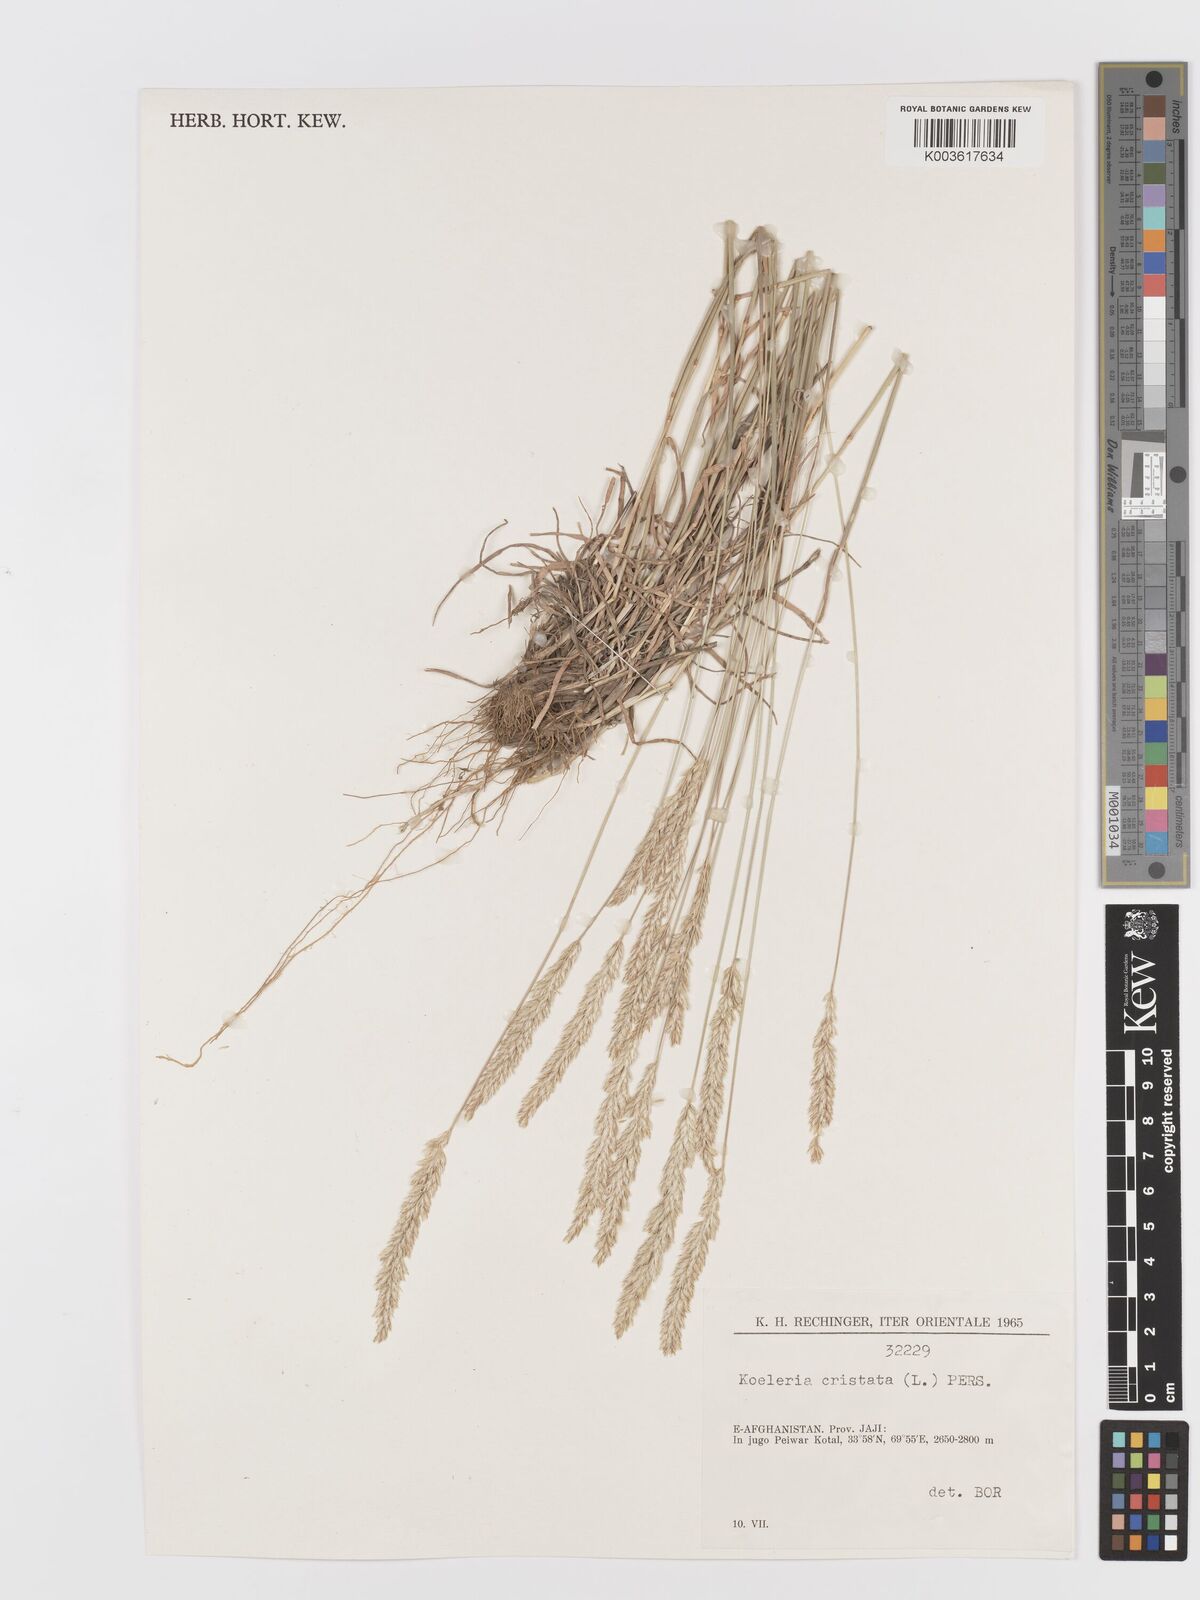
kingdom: Plantae
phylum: Tracheophyta
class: Liliopsida
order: Poales
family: Poaceae
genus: Koeleria
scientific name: Koeleria macrantha
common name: Crested hair-grass
